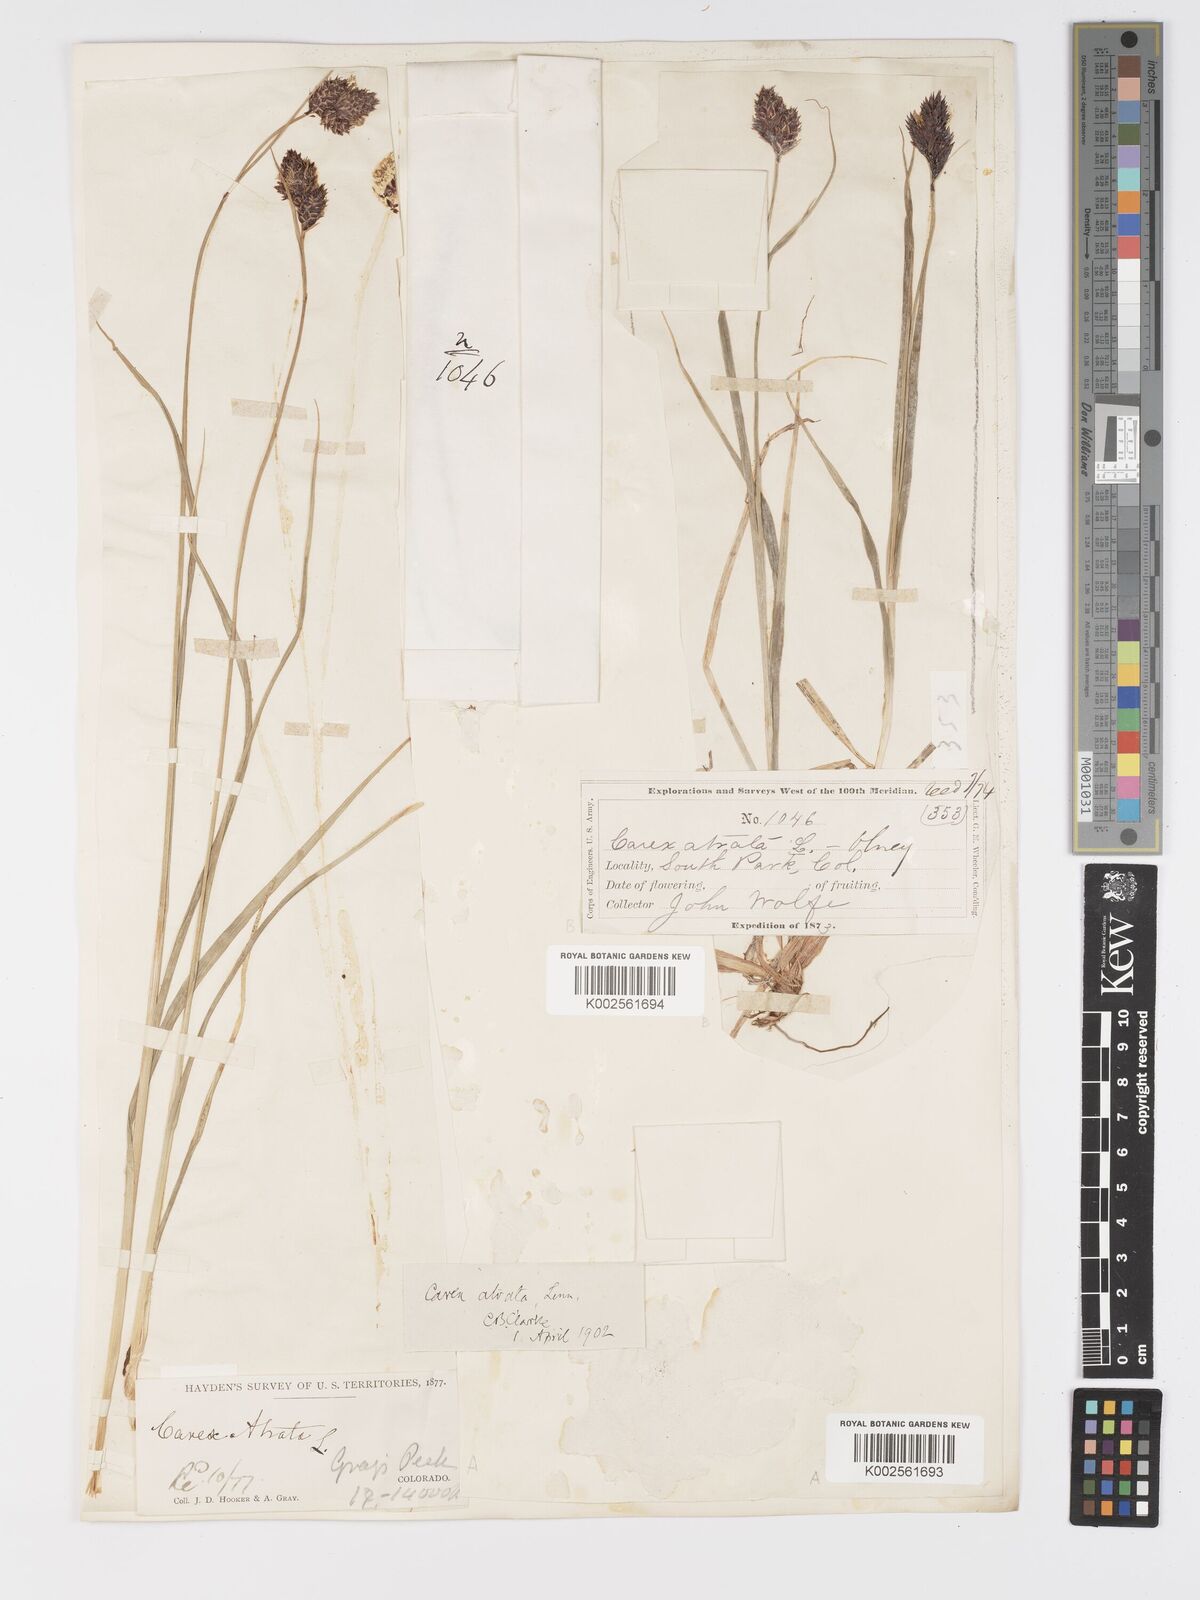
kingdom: Plantae
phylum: Tracheophyta
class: Liliopsida
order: Poales
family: Cyperaceae
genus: Carex
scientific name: Carex chalciolepis
